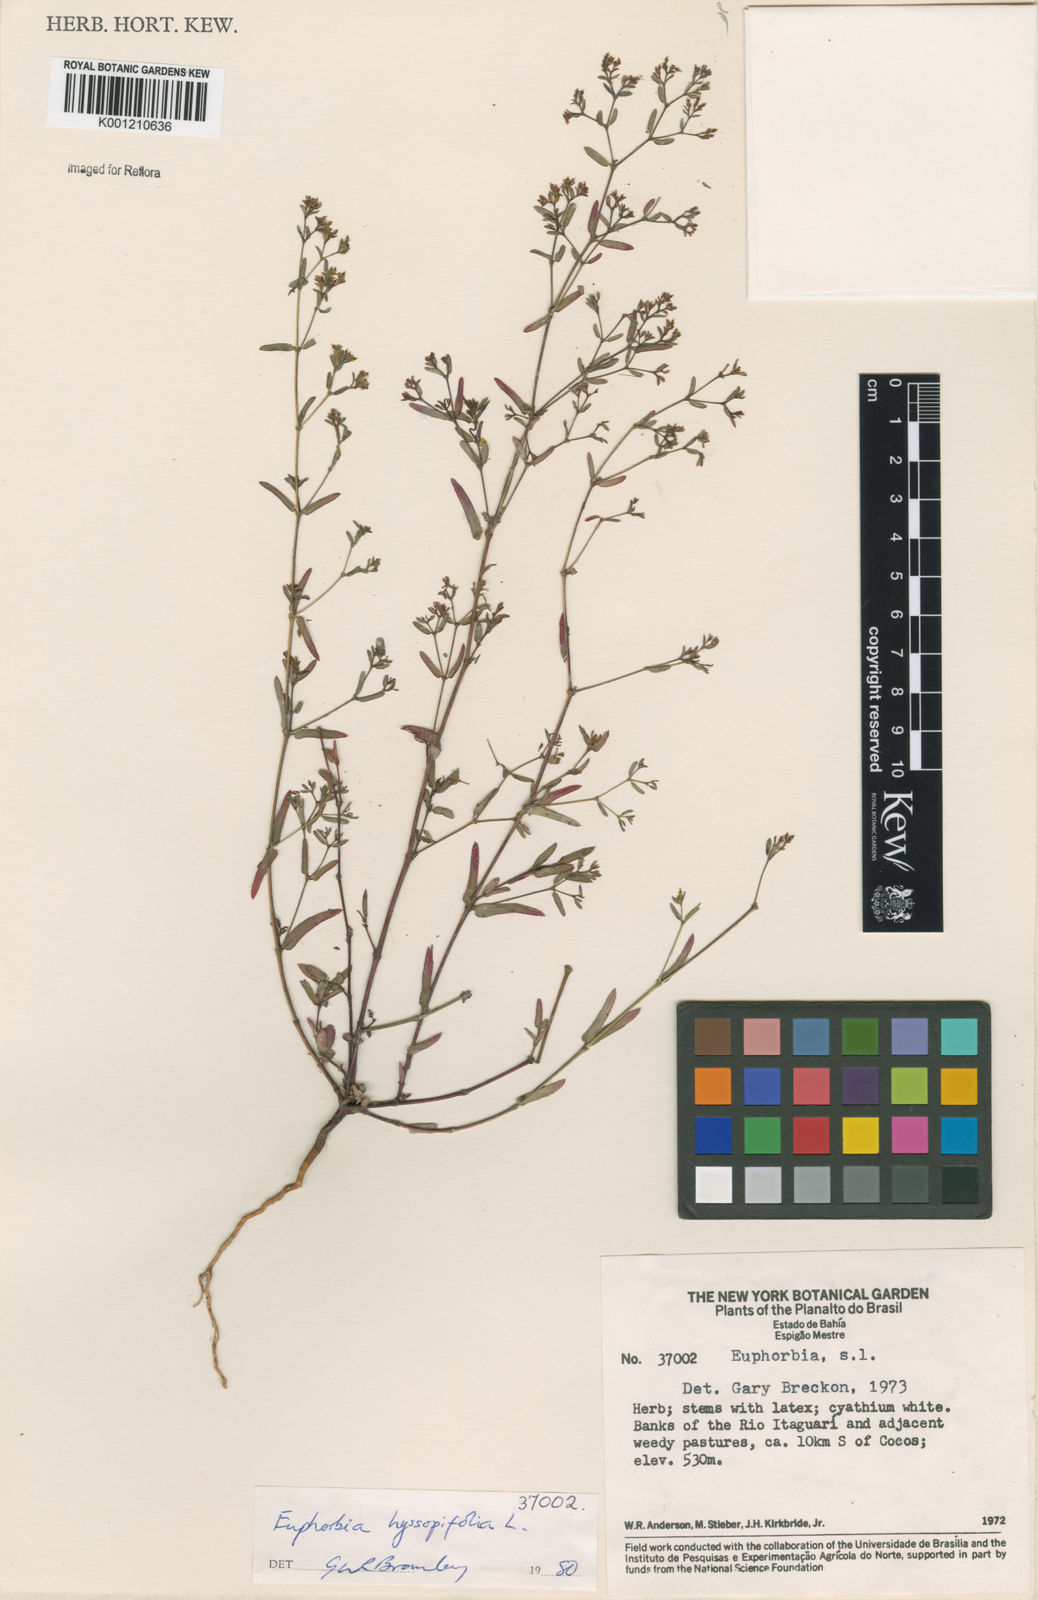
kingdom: Plantae
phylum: Tracheophyta
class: Magnoliopsida
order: Malpighiales
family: Euphorbiaceae
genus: Euphorbia
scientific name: Euphorbia hyssopifolia
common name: Hyssopleaf sandmat
